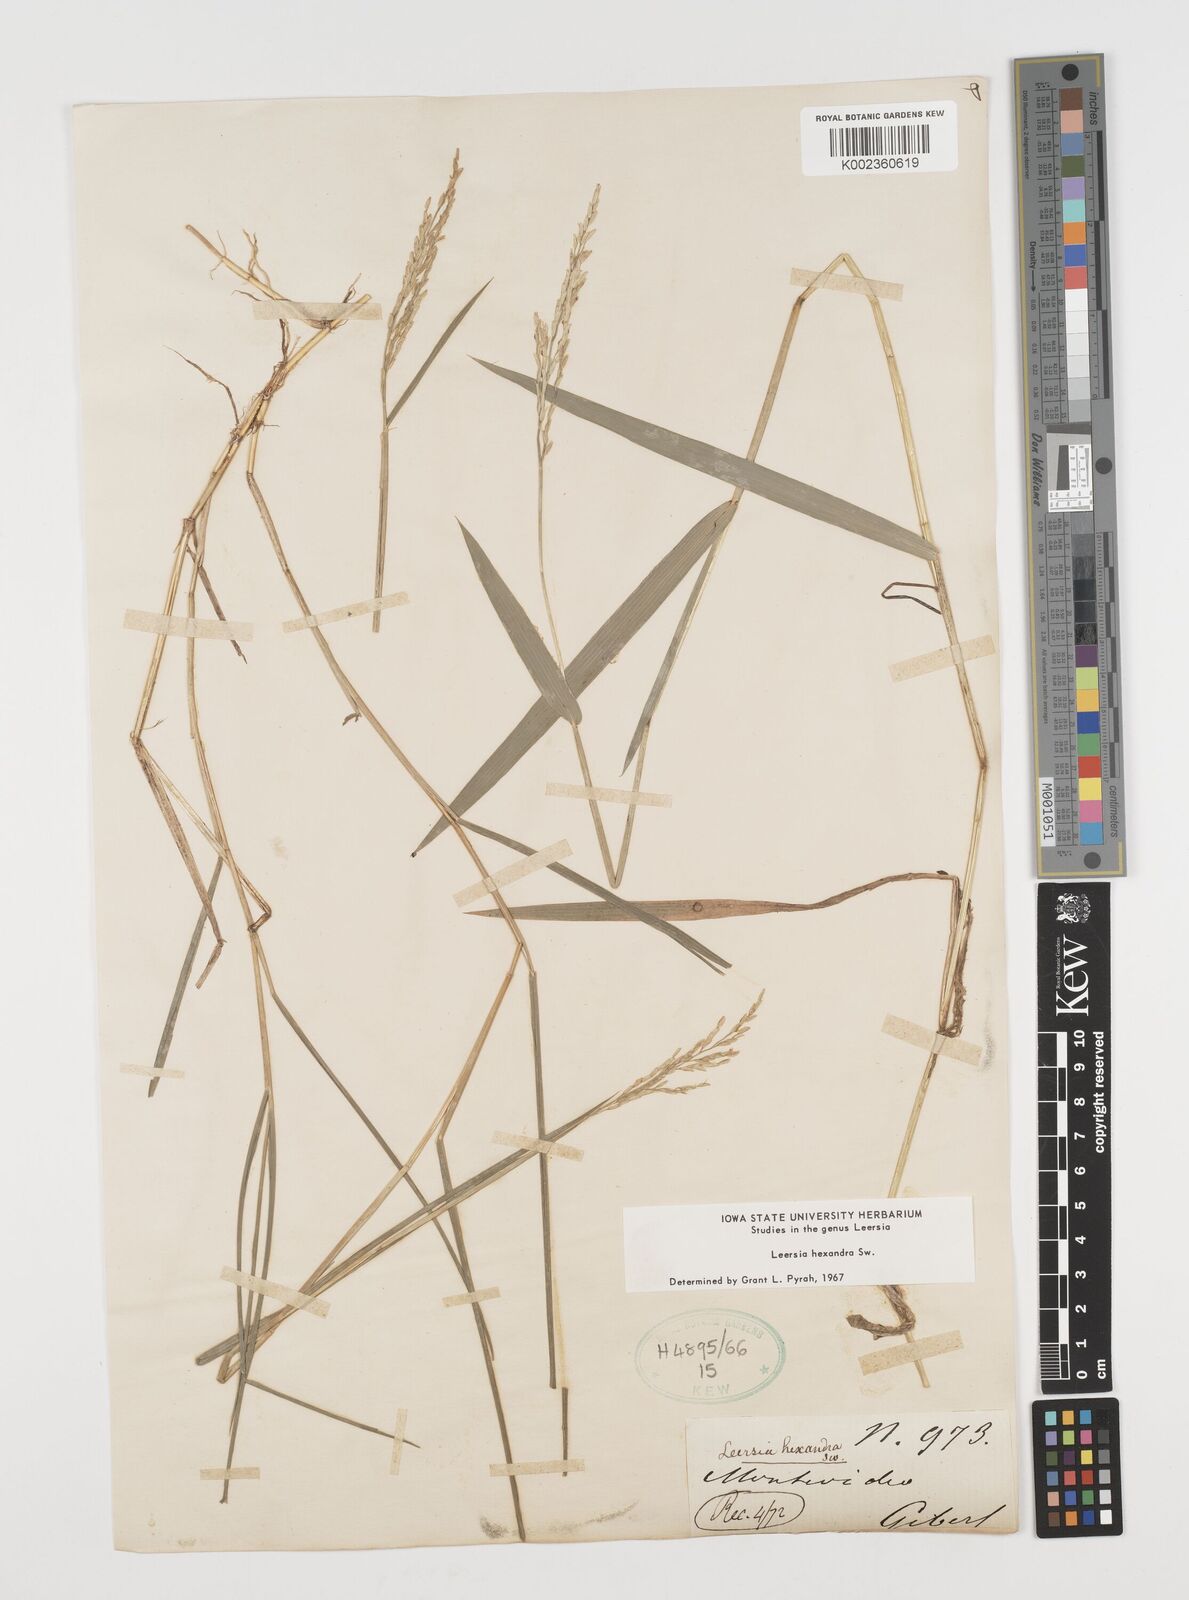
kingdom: Plantae
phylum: Tracheophyta
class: Liliopsida
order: Poales
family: Poaceae
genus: Leersia
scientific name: Leersia hexandra
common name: Southern cut grass
